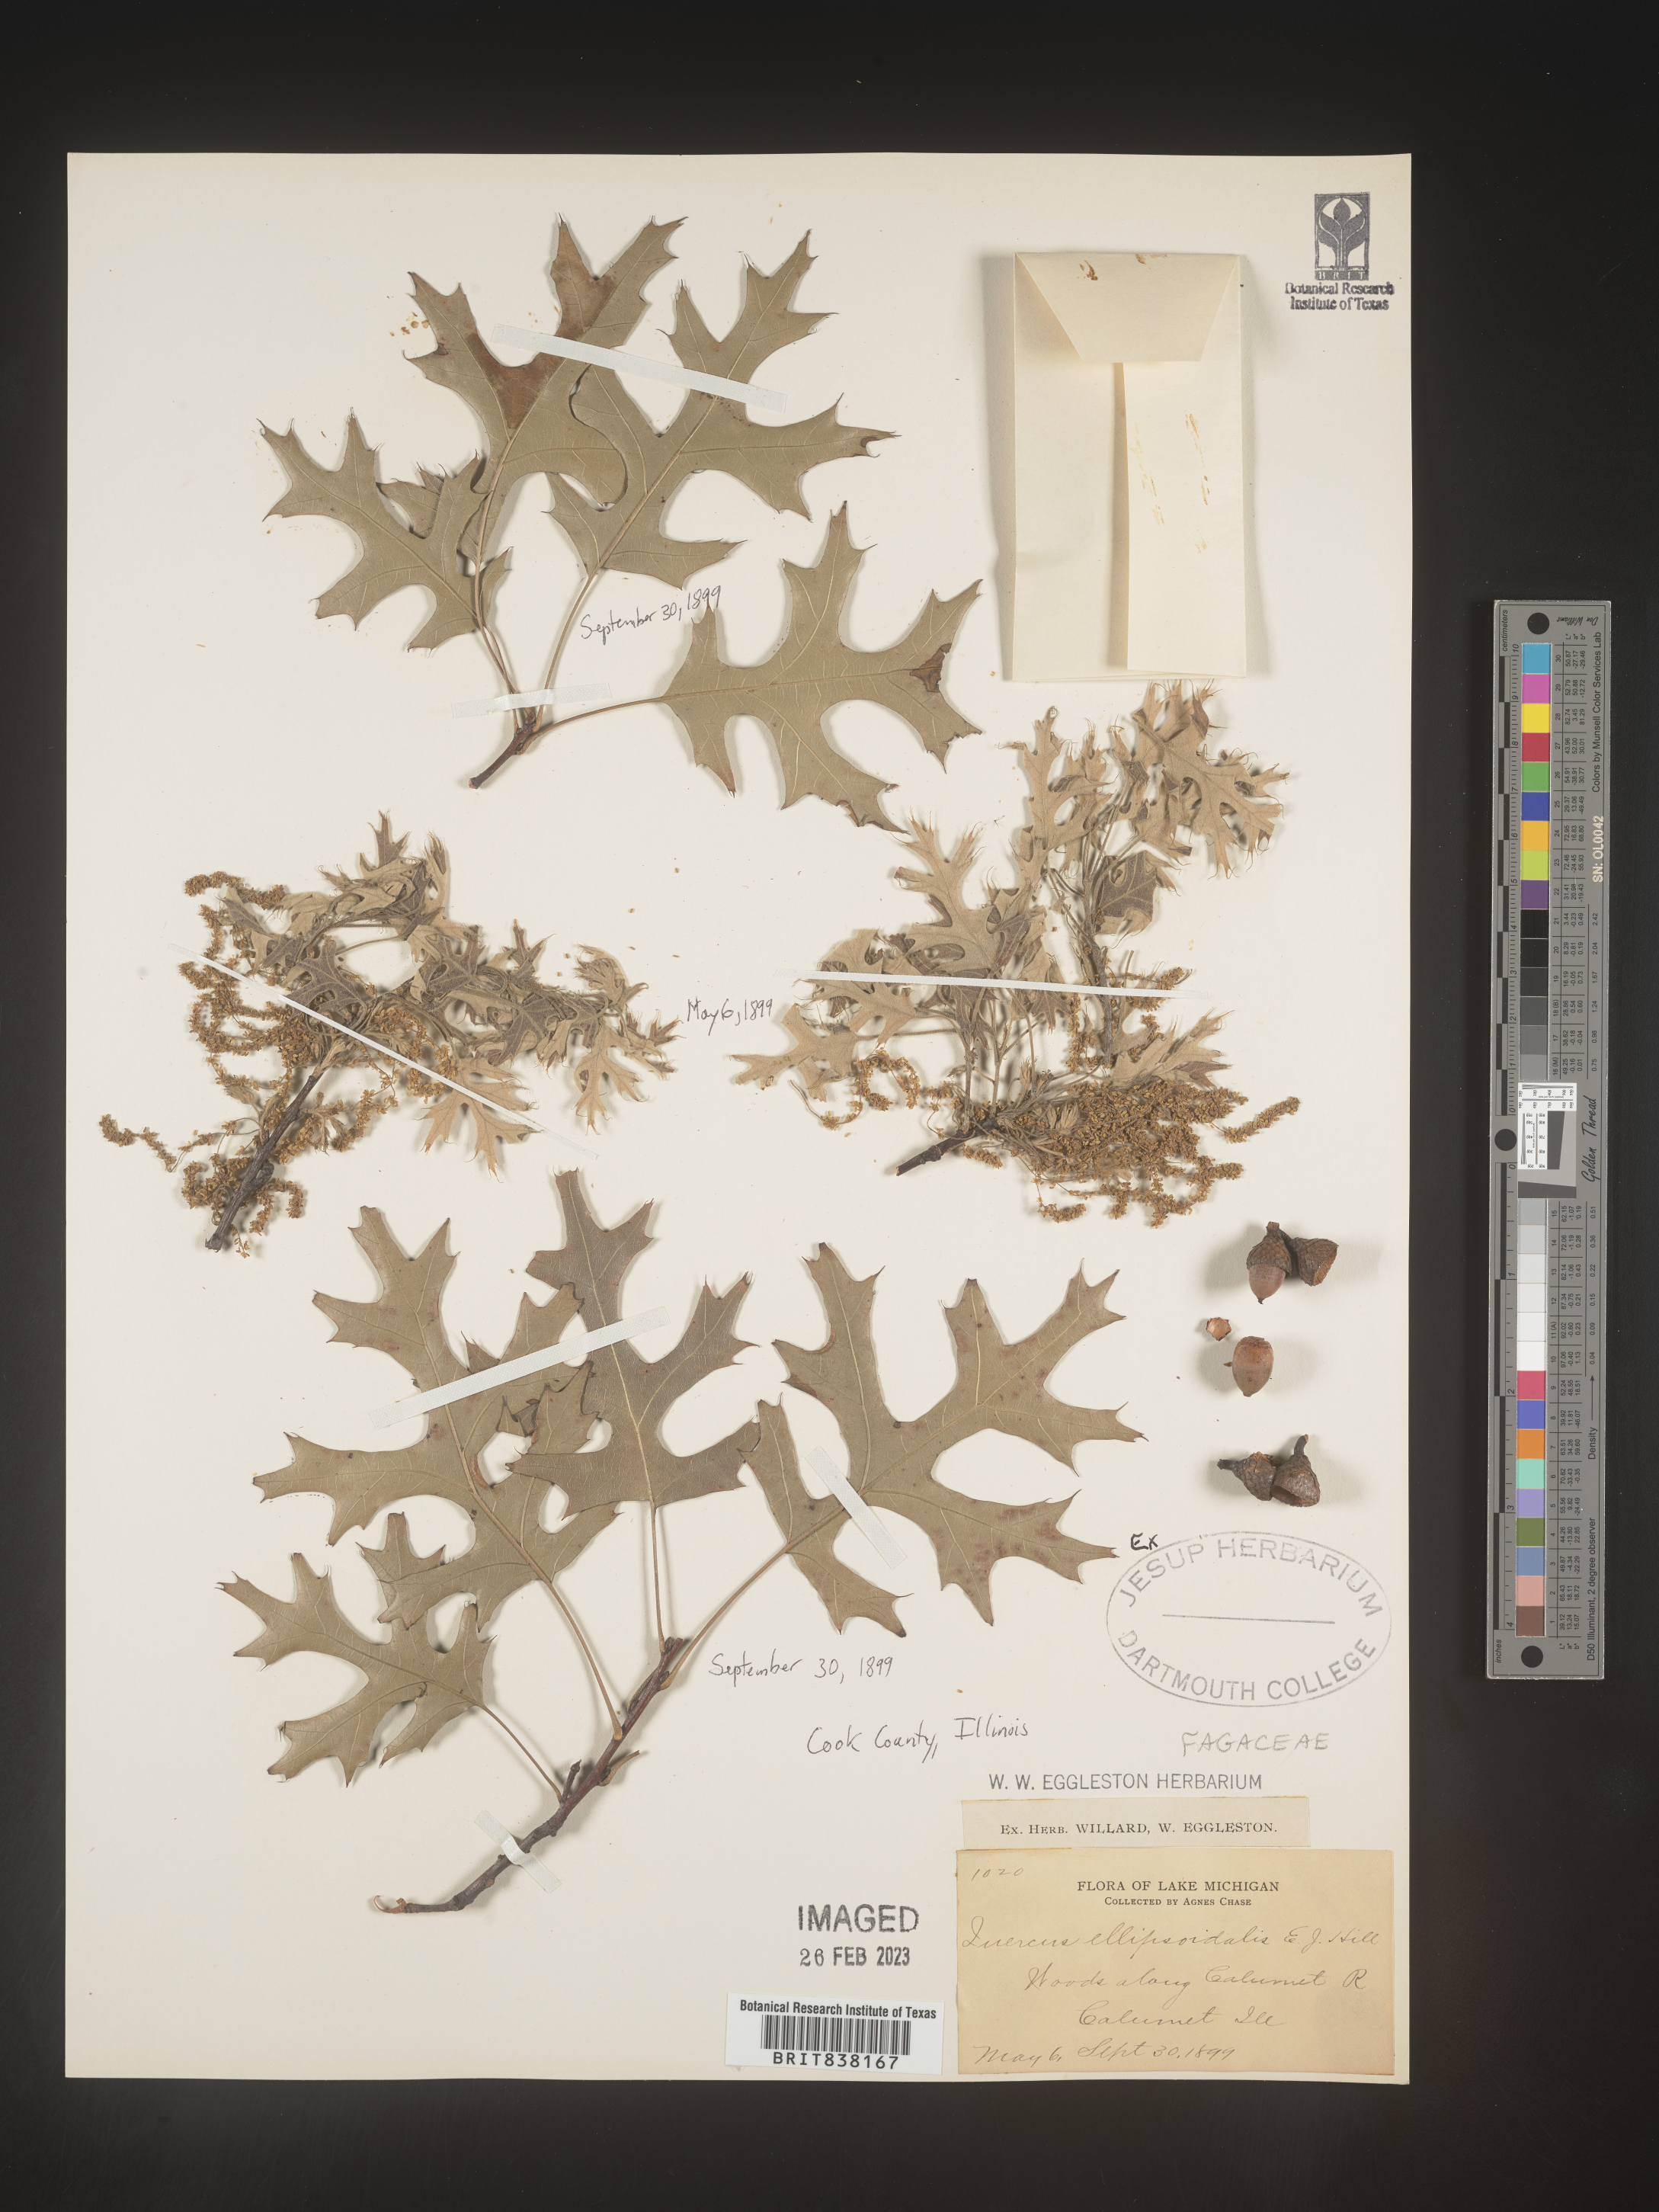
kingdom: Plantae
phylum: Tracheophyta
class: Magnoliopsida
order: Fagales
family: Fagaceae
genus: Quercus
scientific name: Quercus ellipsoidalis
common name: Hill's oak
